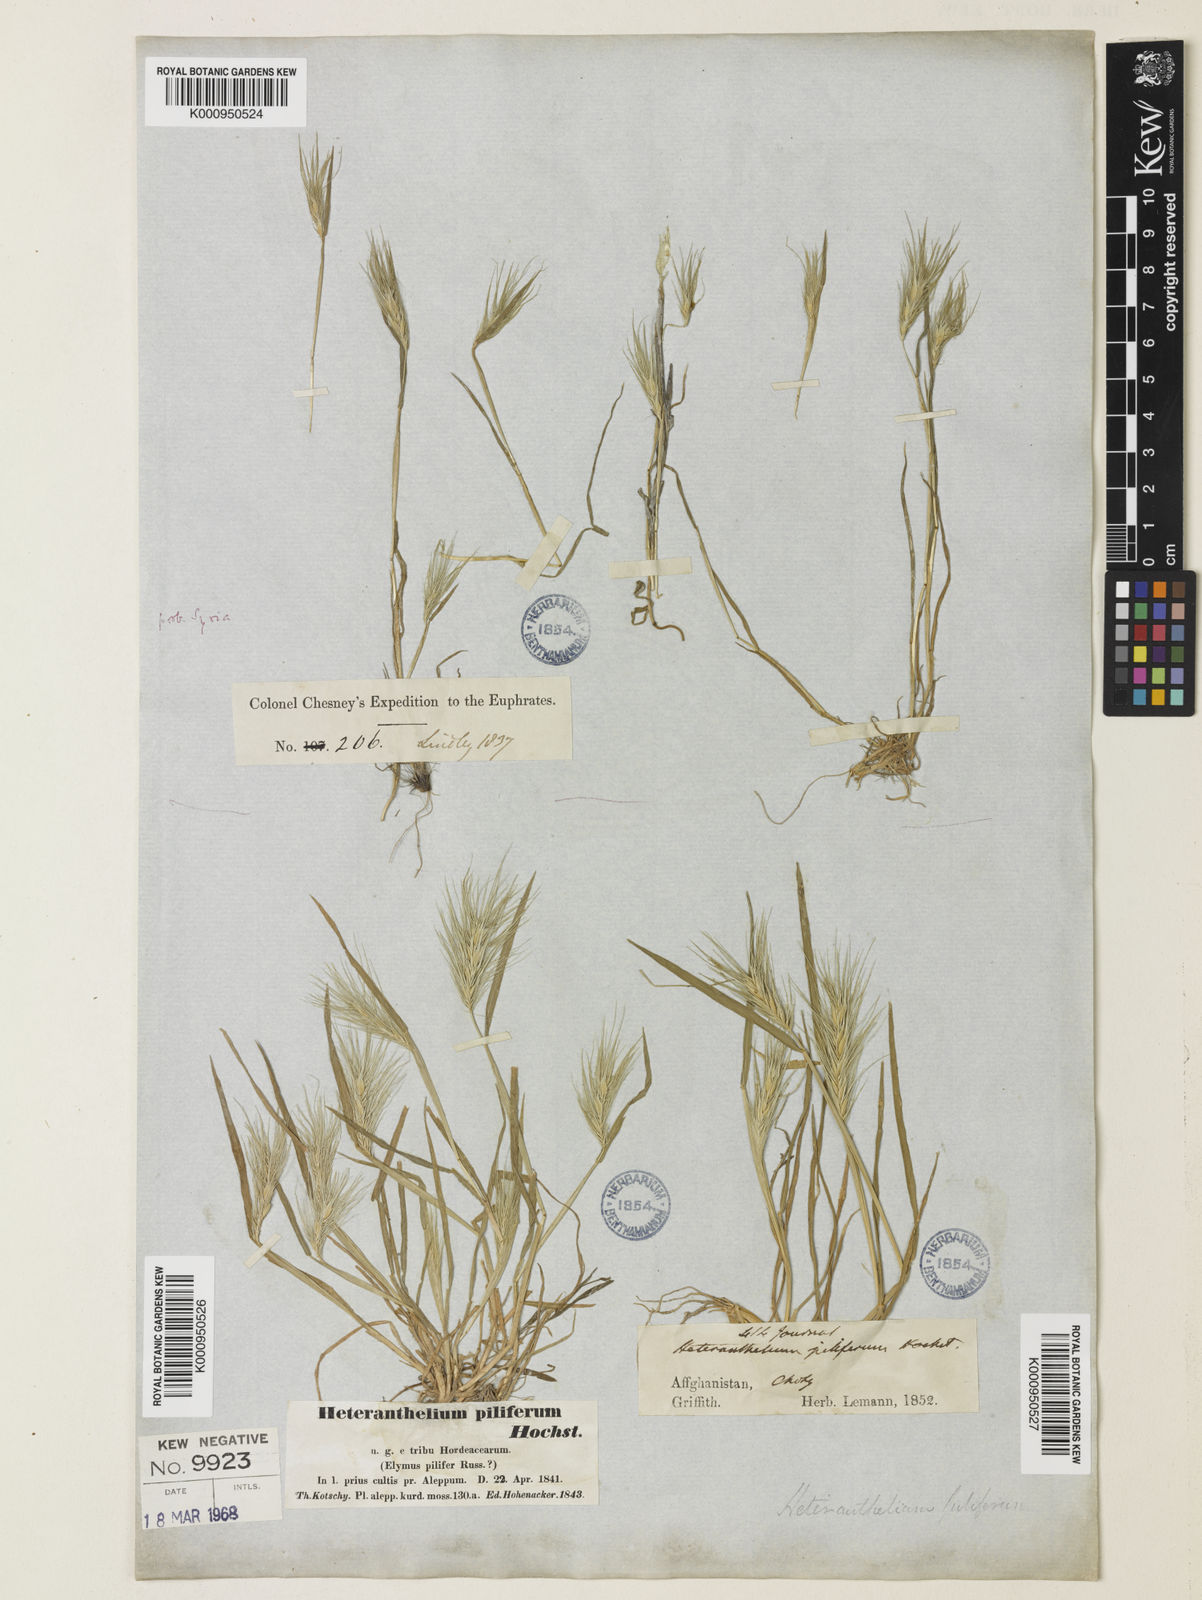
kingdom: Plantae
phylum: Tracheophyta
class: Liliopsida
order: Poales
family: Poaceae
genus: Heteranthelium
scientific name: Heteranthelium piliferum
